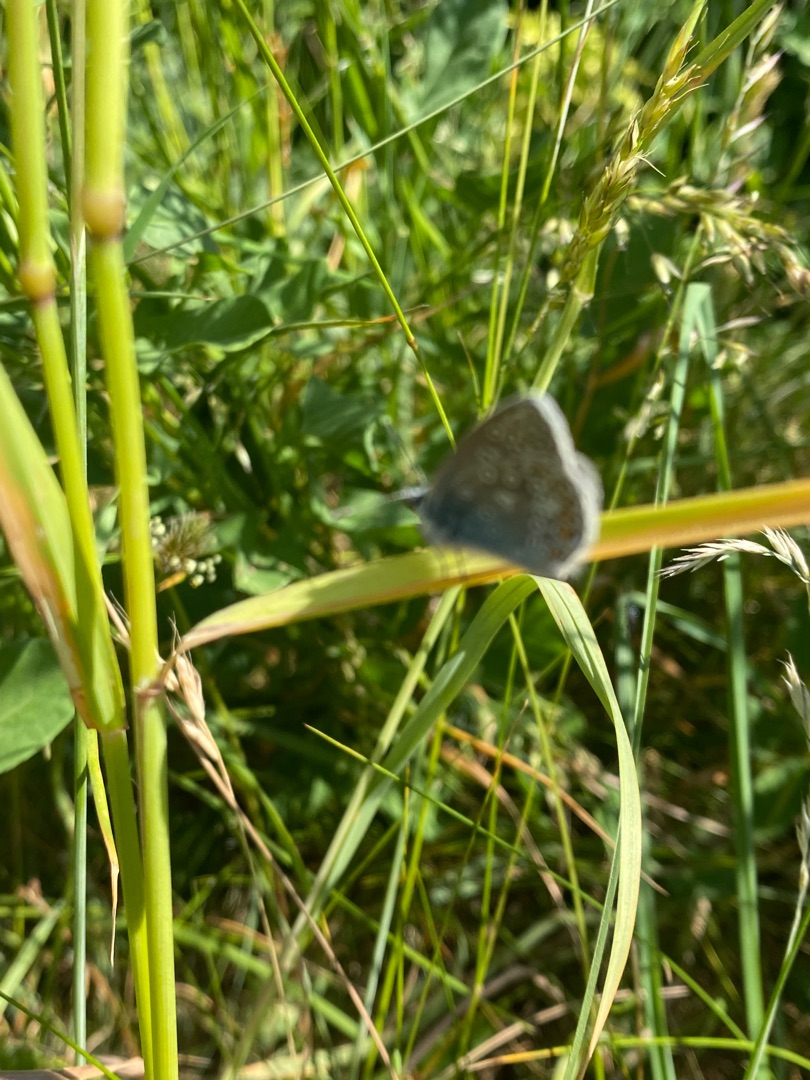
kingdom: Animalia
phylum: Arthropoda
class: Insecta
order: Lepidoptera
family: Lycaenidae
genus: Polyommatus
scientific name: Polyommatus icarus
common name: Almindelig blåfugl
